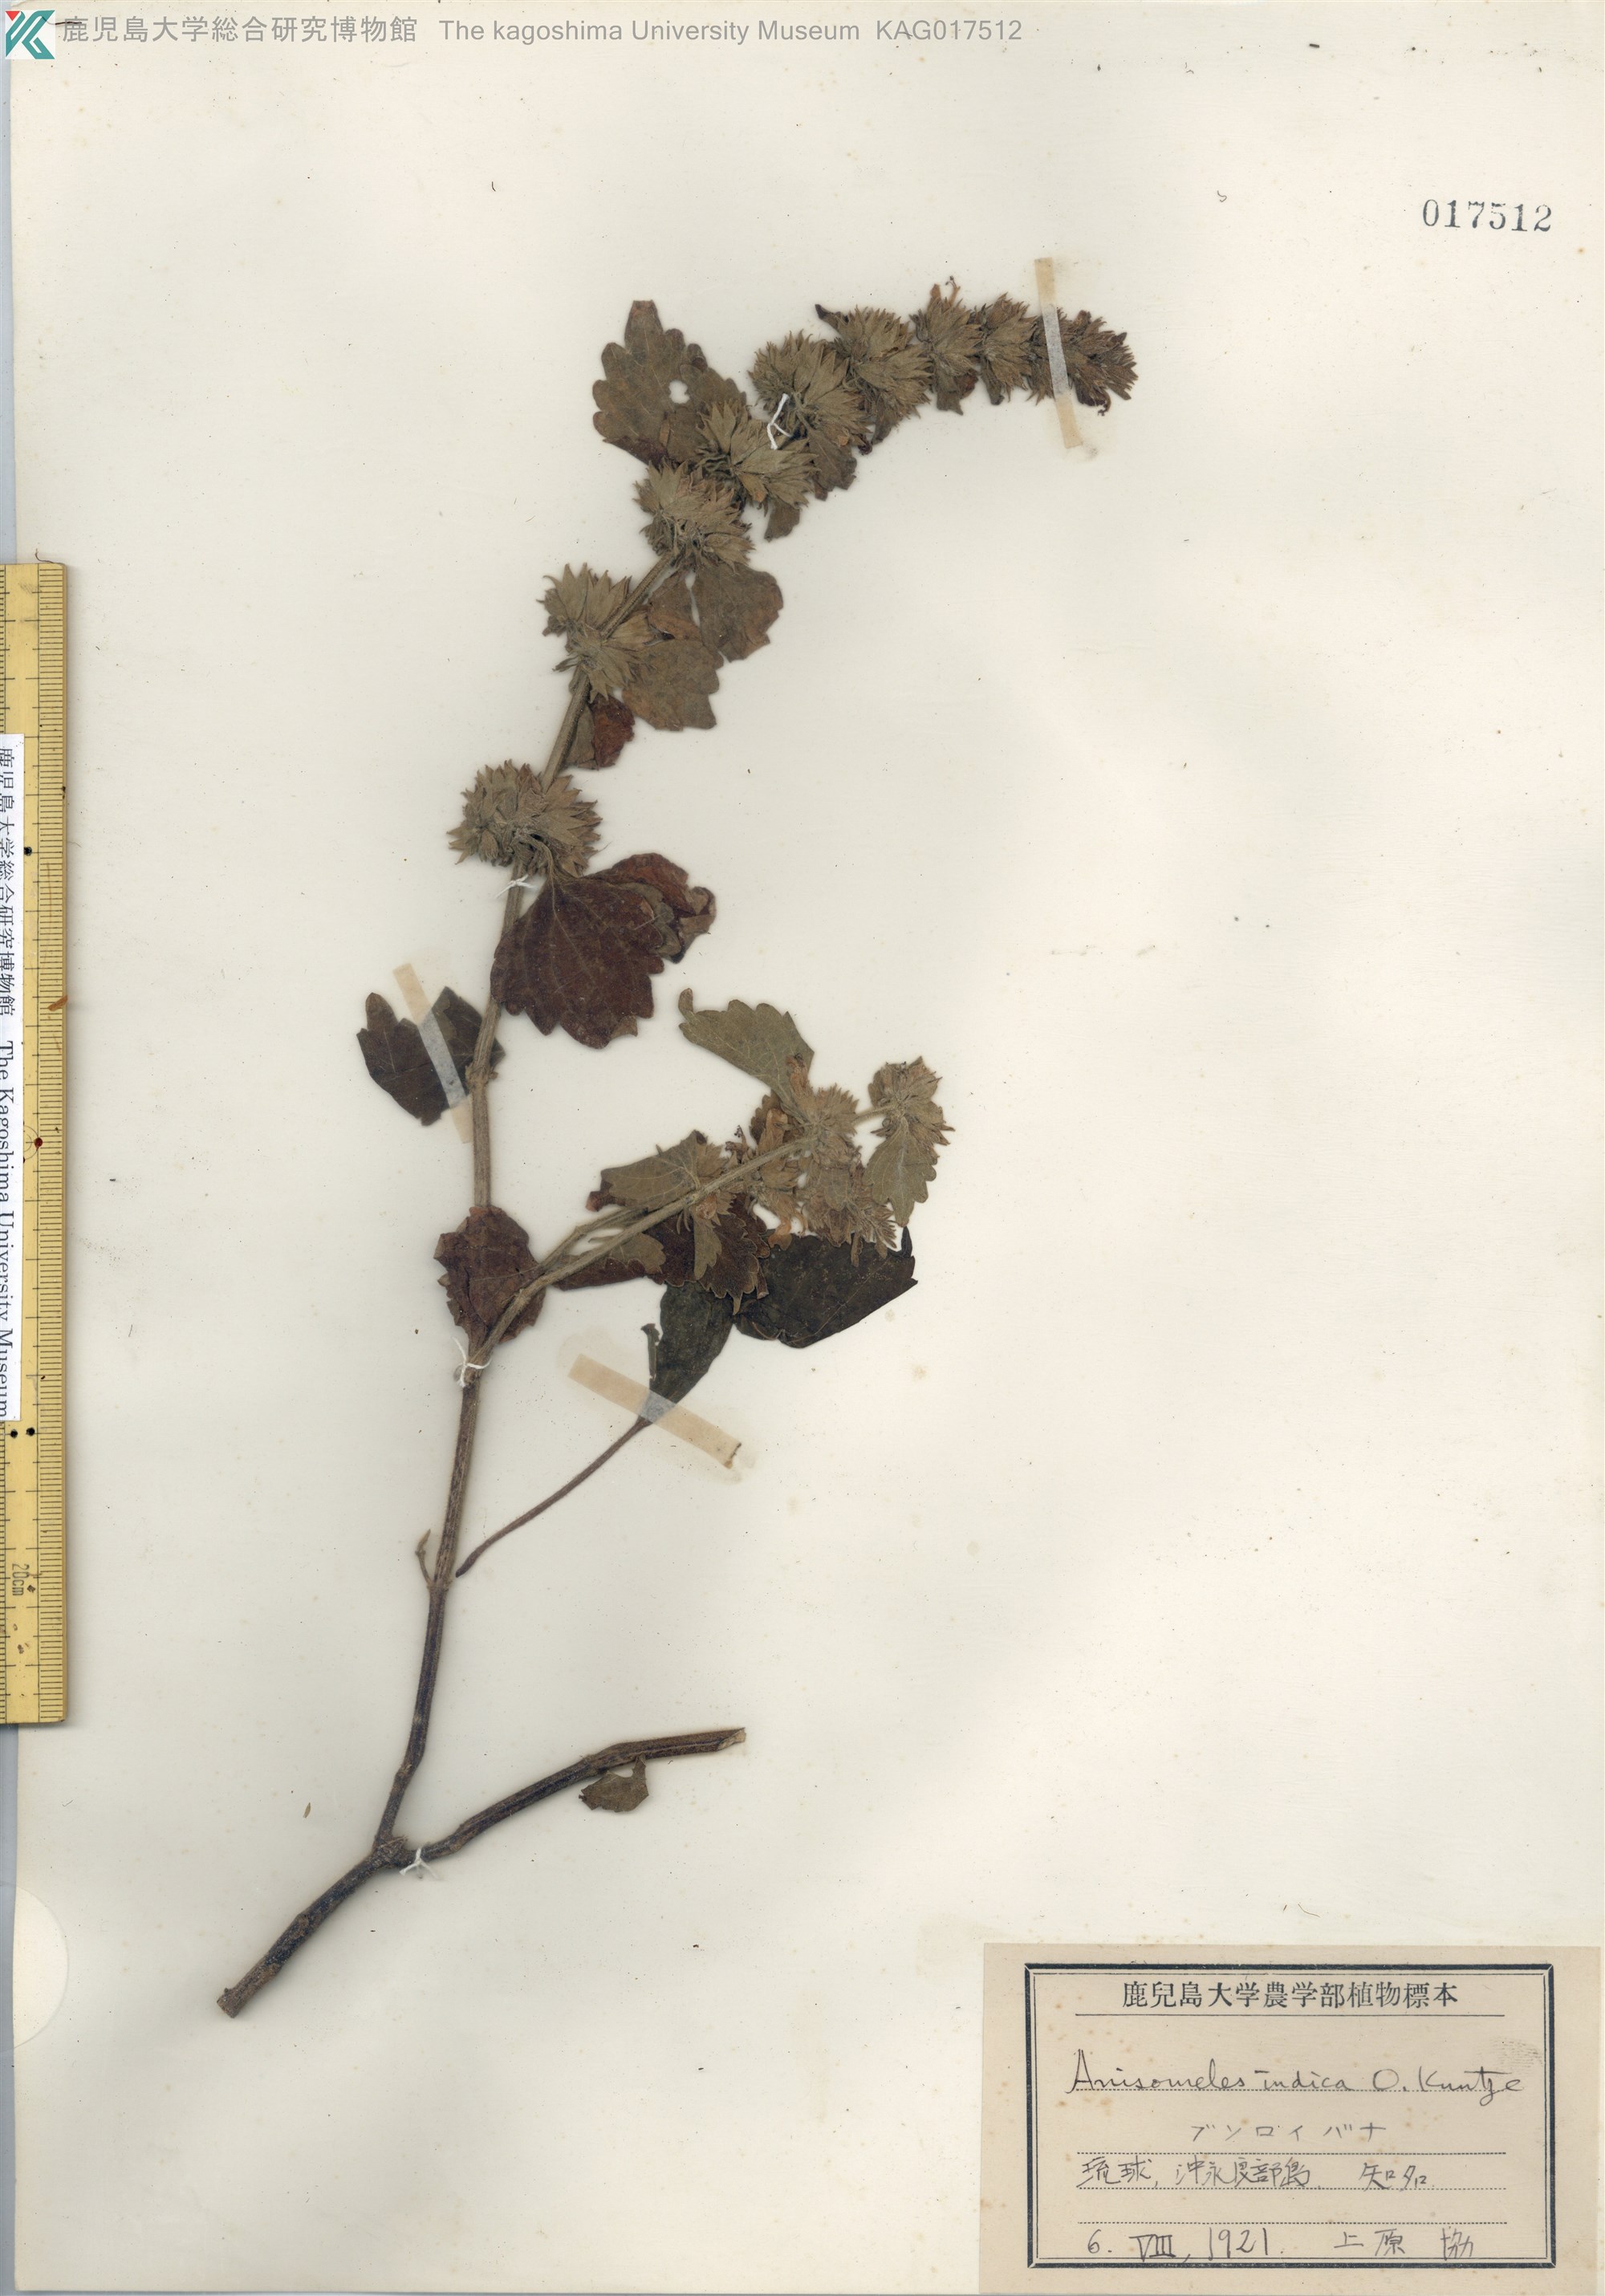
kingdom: Plantae
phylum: Tracheophyta
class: Magnoliopsida
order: Lamiales
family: Lamiaceae
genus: Anisomeles
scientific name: Anisomeles indica
